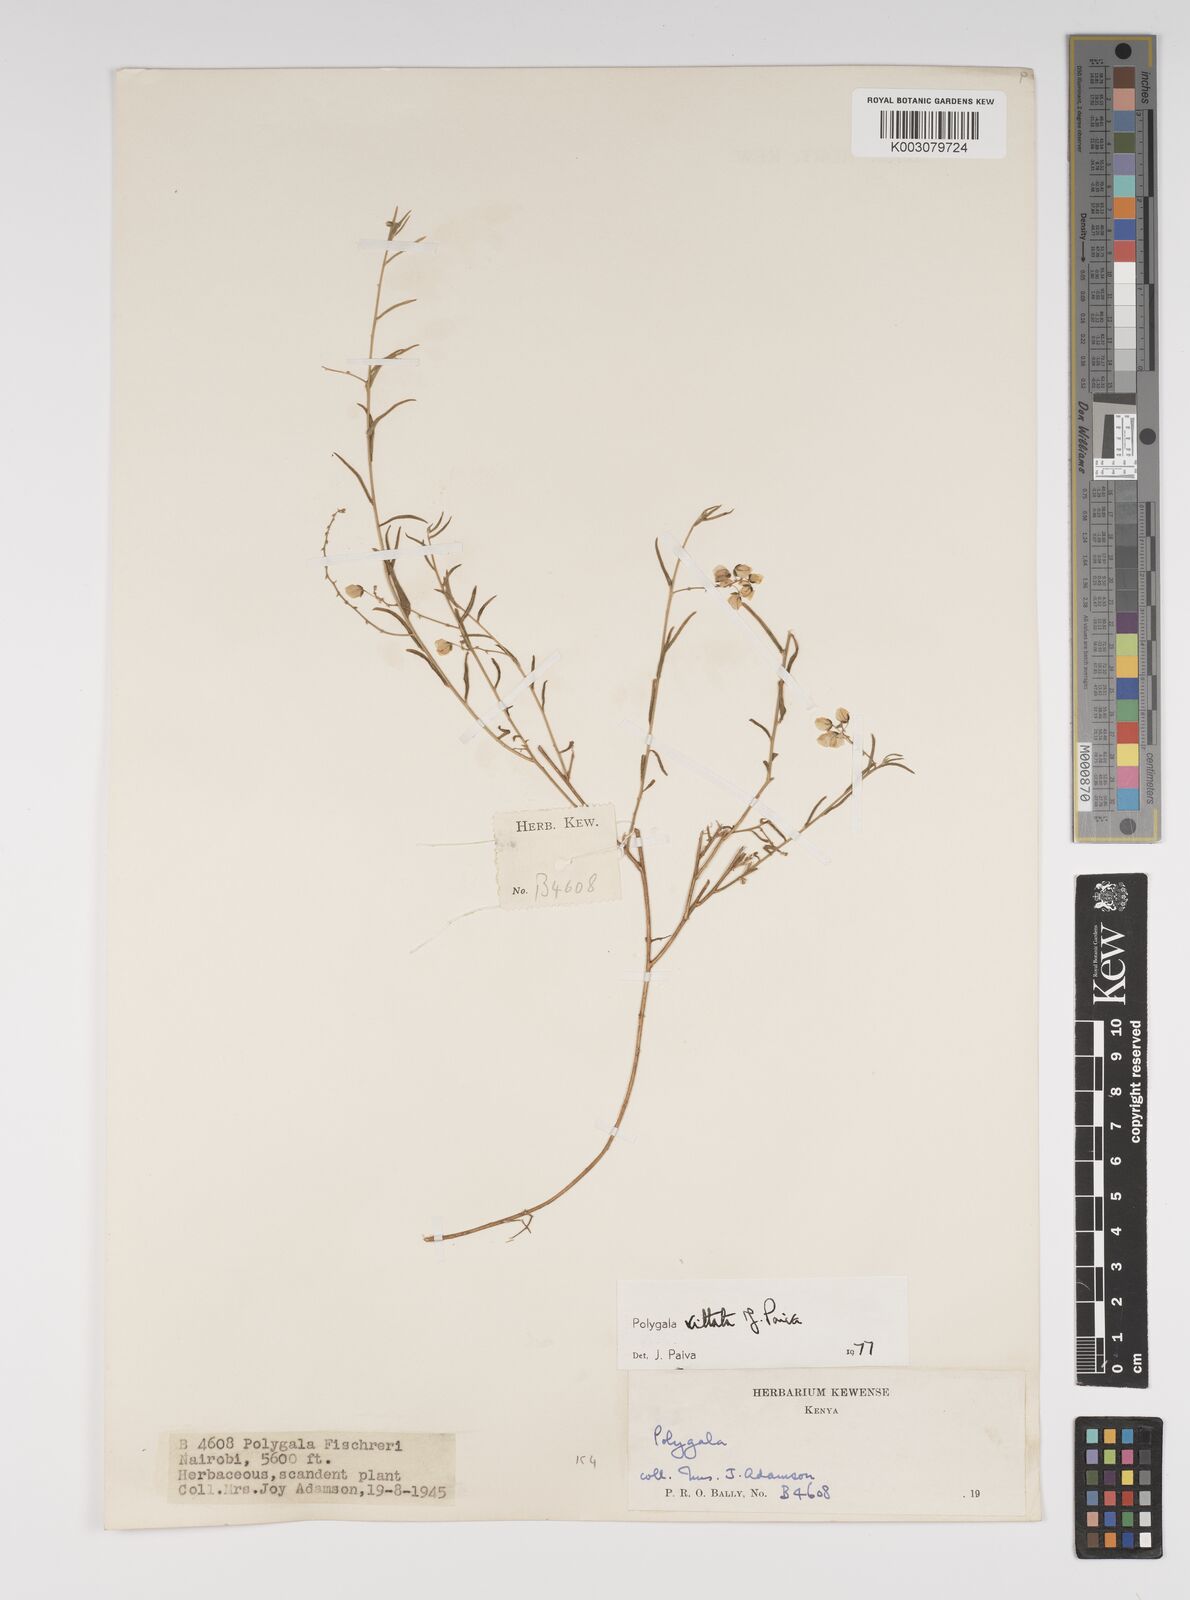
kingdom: Plantae
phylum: Tracheophyta
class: Magnoliopsida
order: Fabales
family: Polygalaceae
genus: Polygala
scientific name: Polygala vittata
